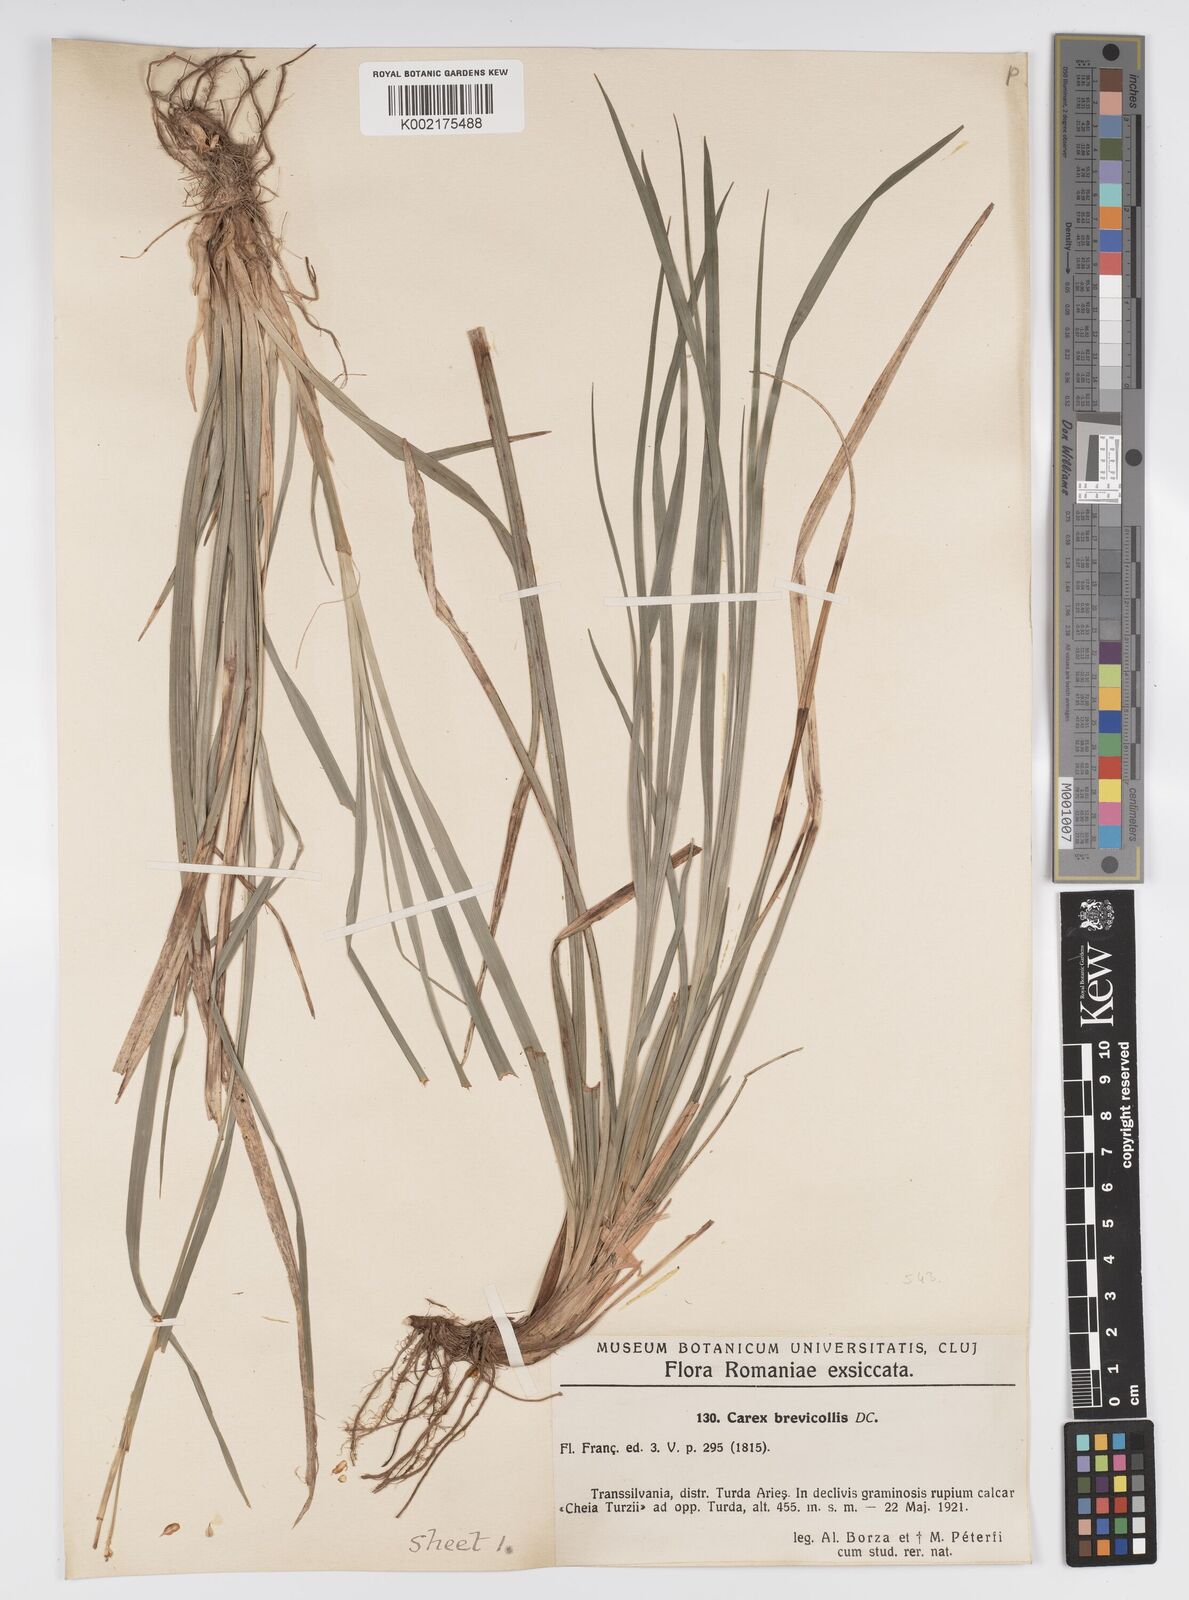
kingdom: Plantae
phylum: Tracheophyta
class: Liliopsida
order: Poales
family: Cyperaceae
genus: Carex
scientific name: Carex brevicollis
